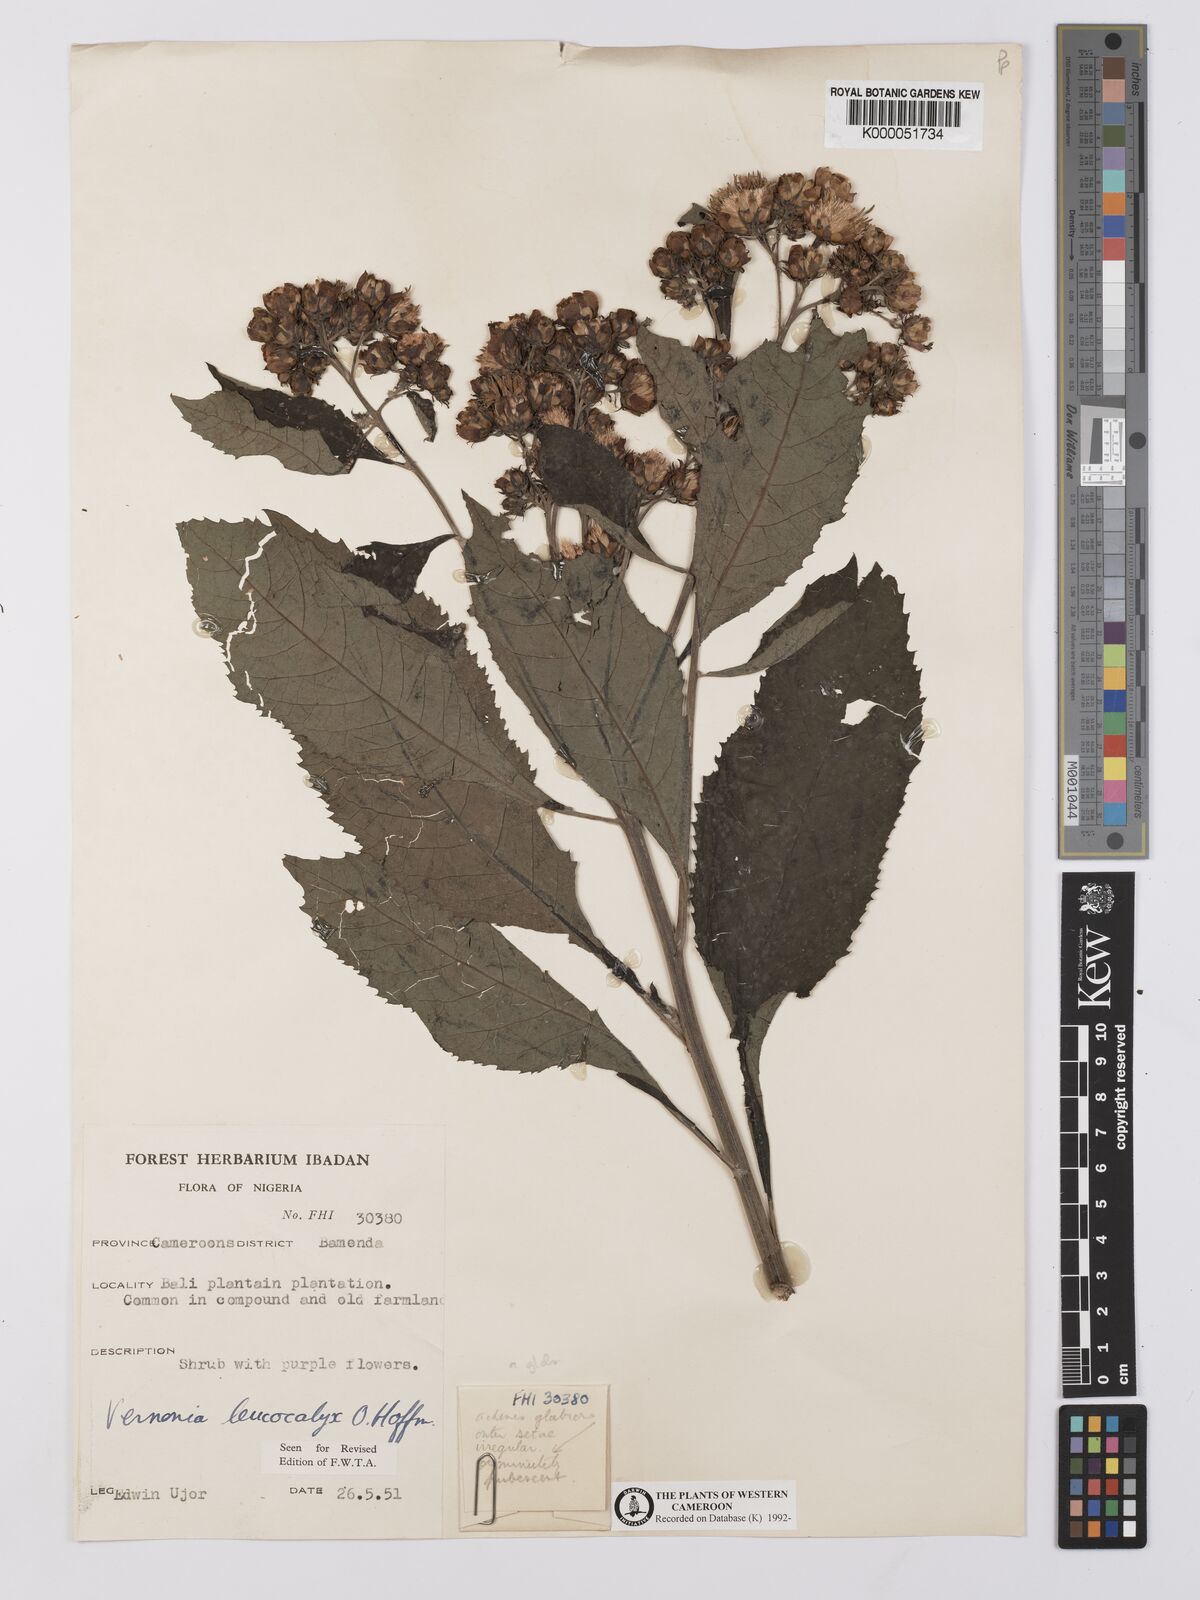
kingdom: Plantae
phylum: Tracheophyta
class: Magnoliopsida
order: Asterales
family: Asteraceae
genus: Baccharoides
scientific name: Baccharoides hymenolepis
